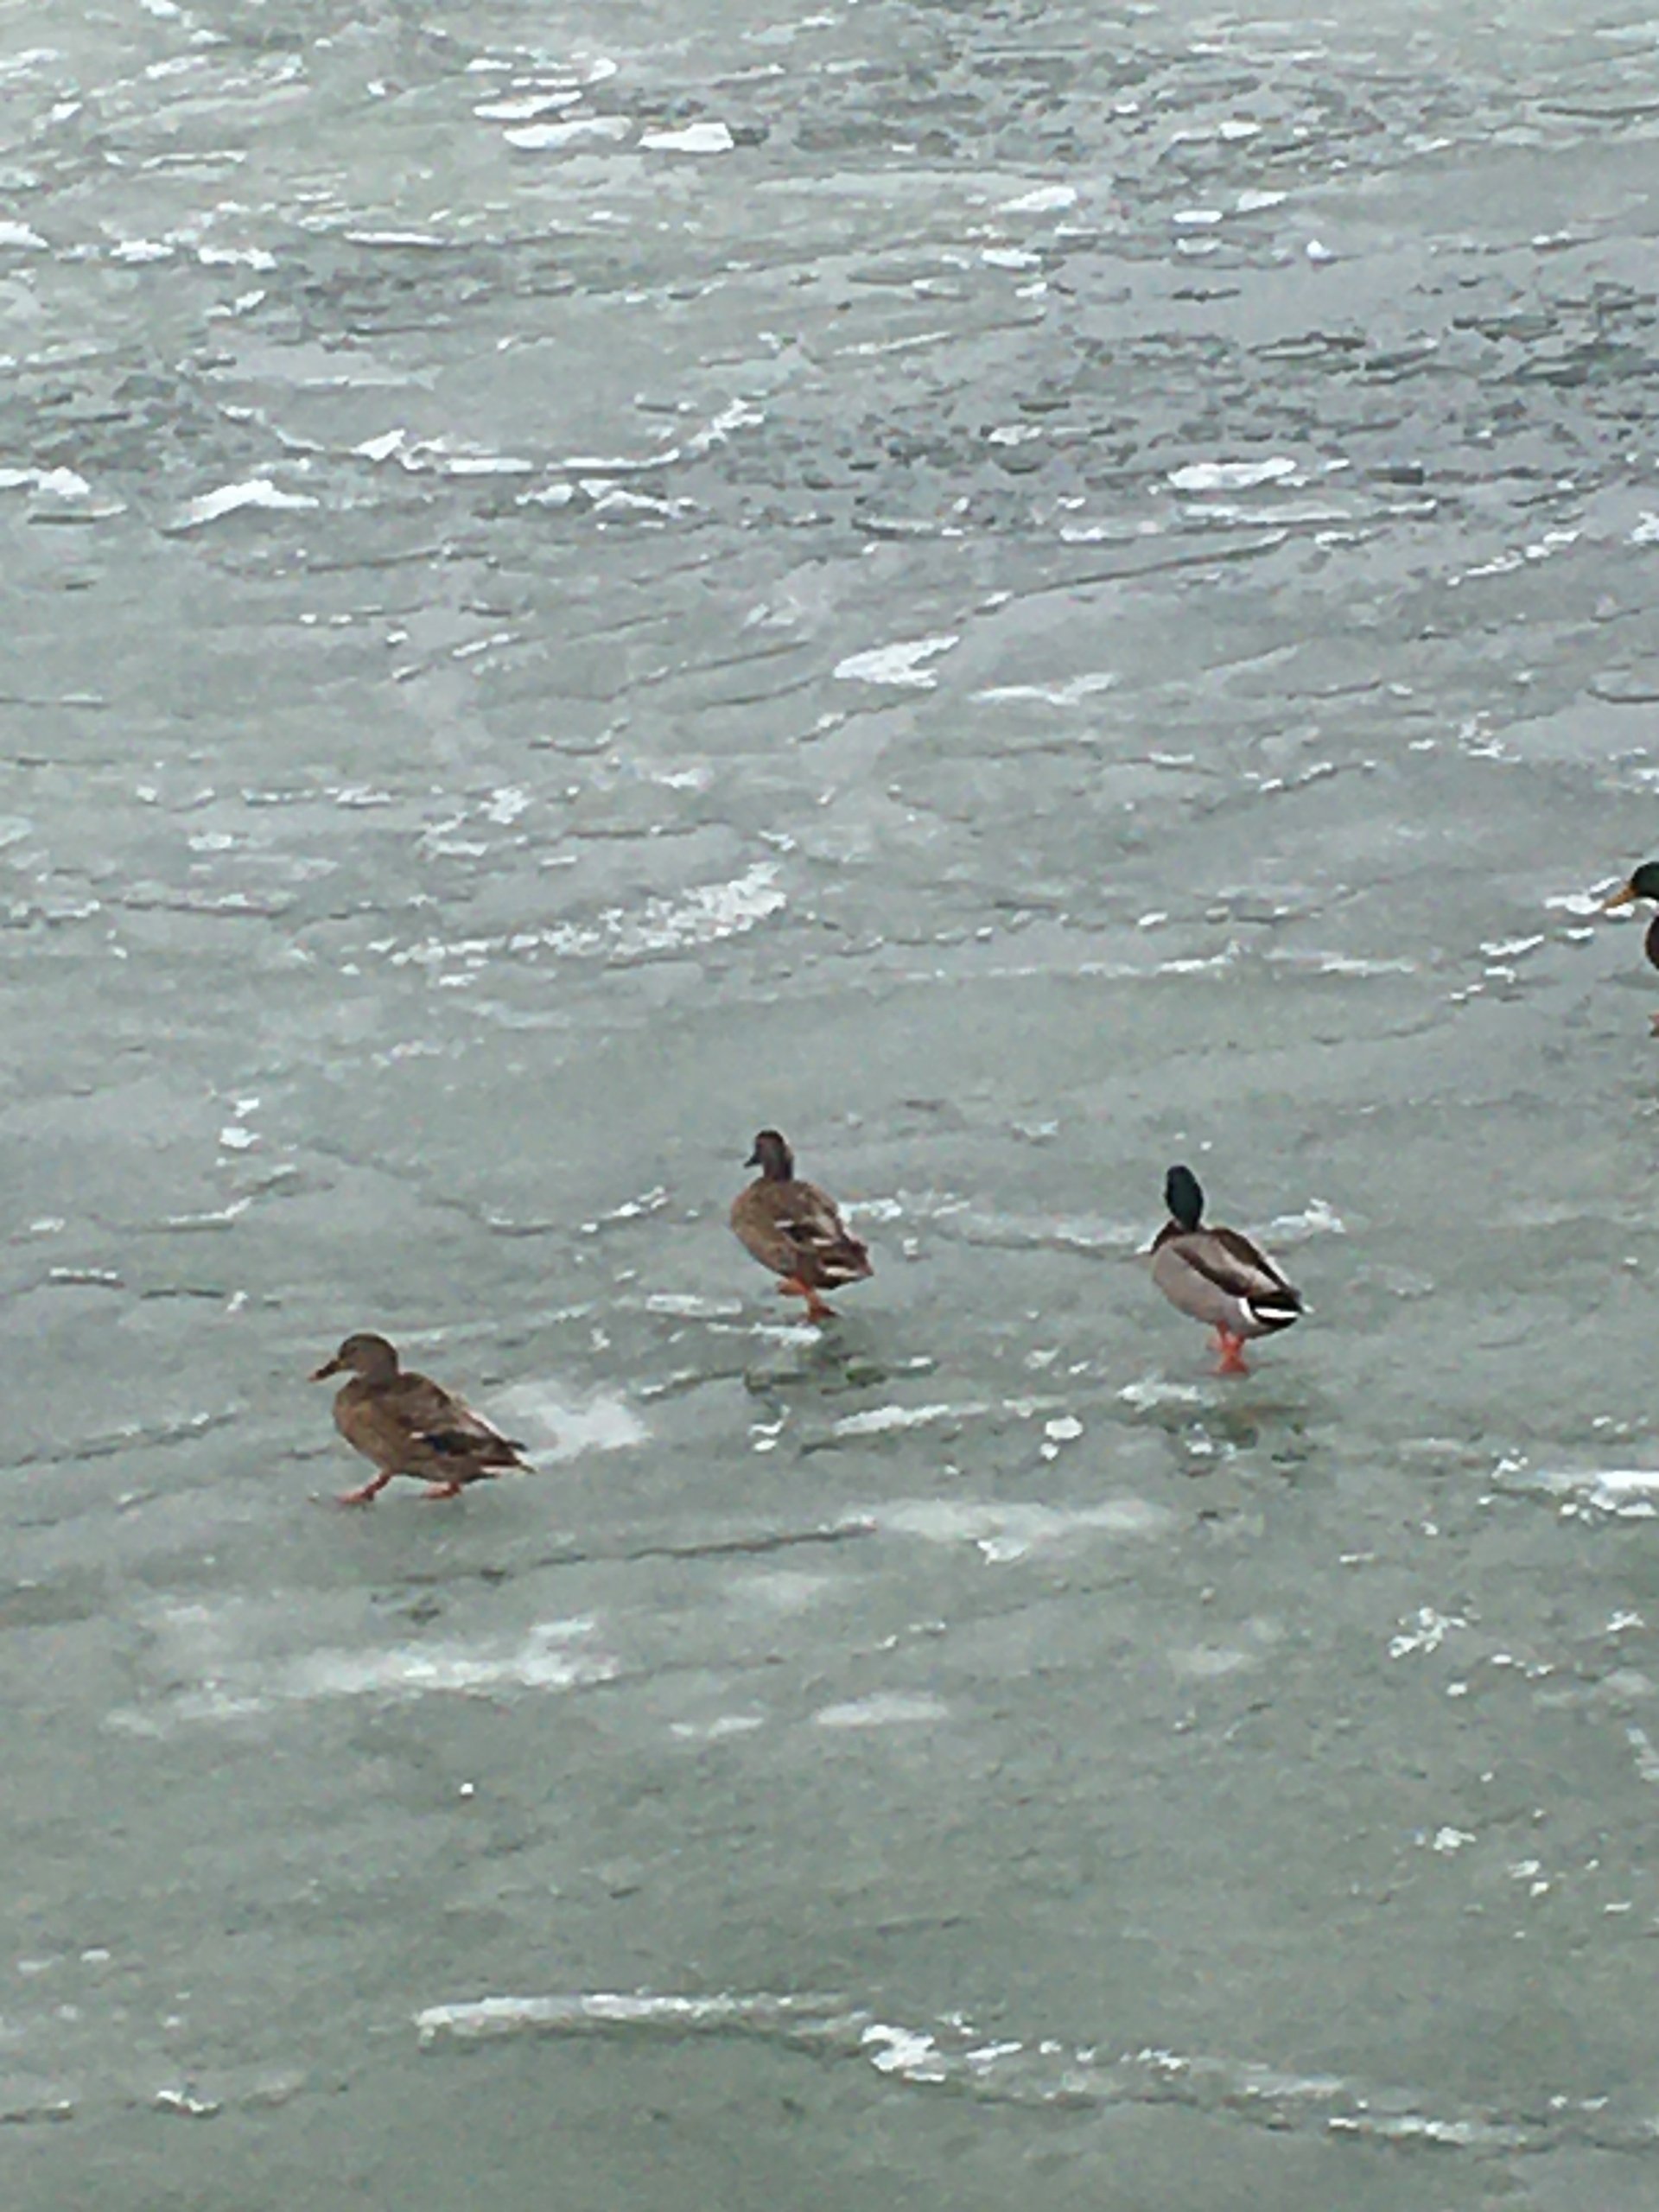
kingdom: Animalia
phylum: Chordata
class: Aves
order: Anseriformes
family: Anatidae
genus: Anas
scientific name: Anas platyrhynchos
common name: Gråand
